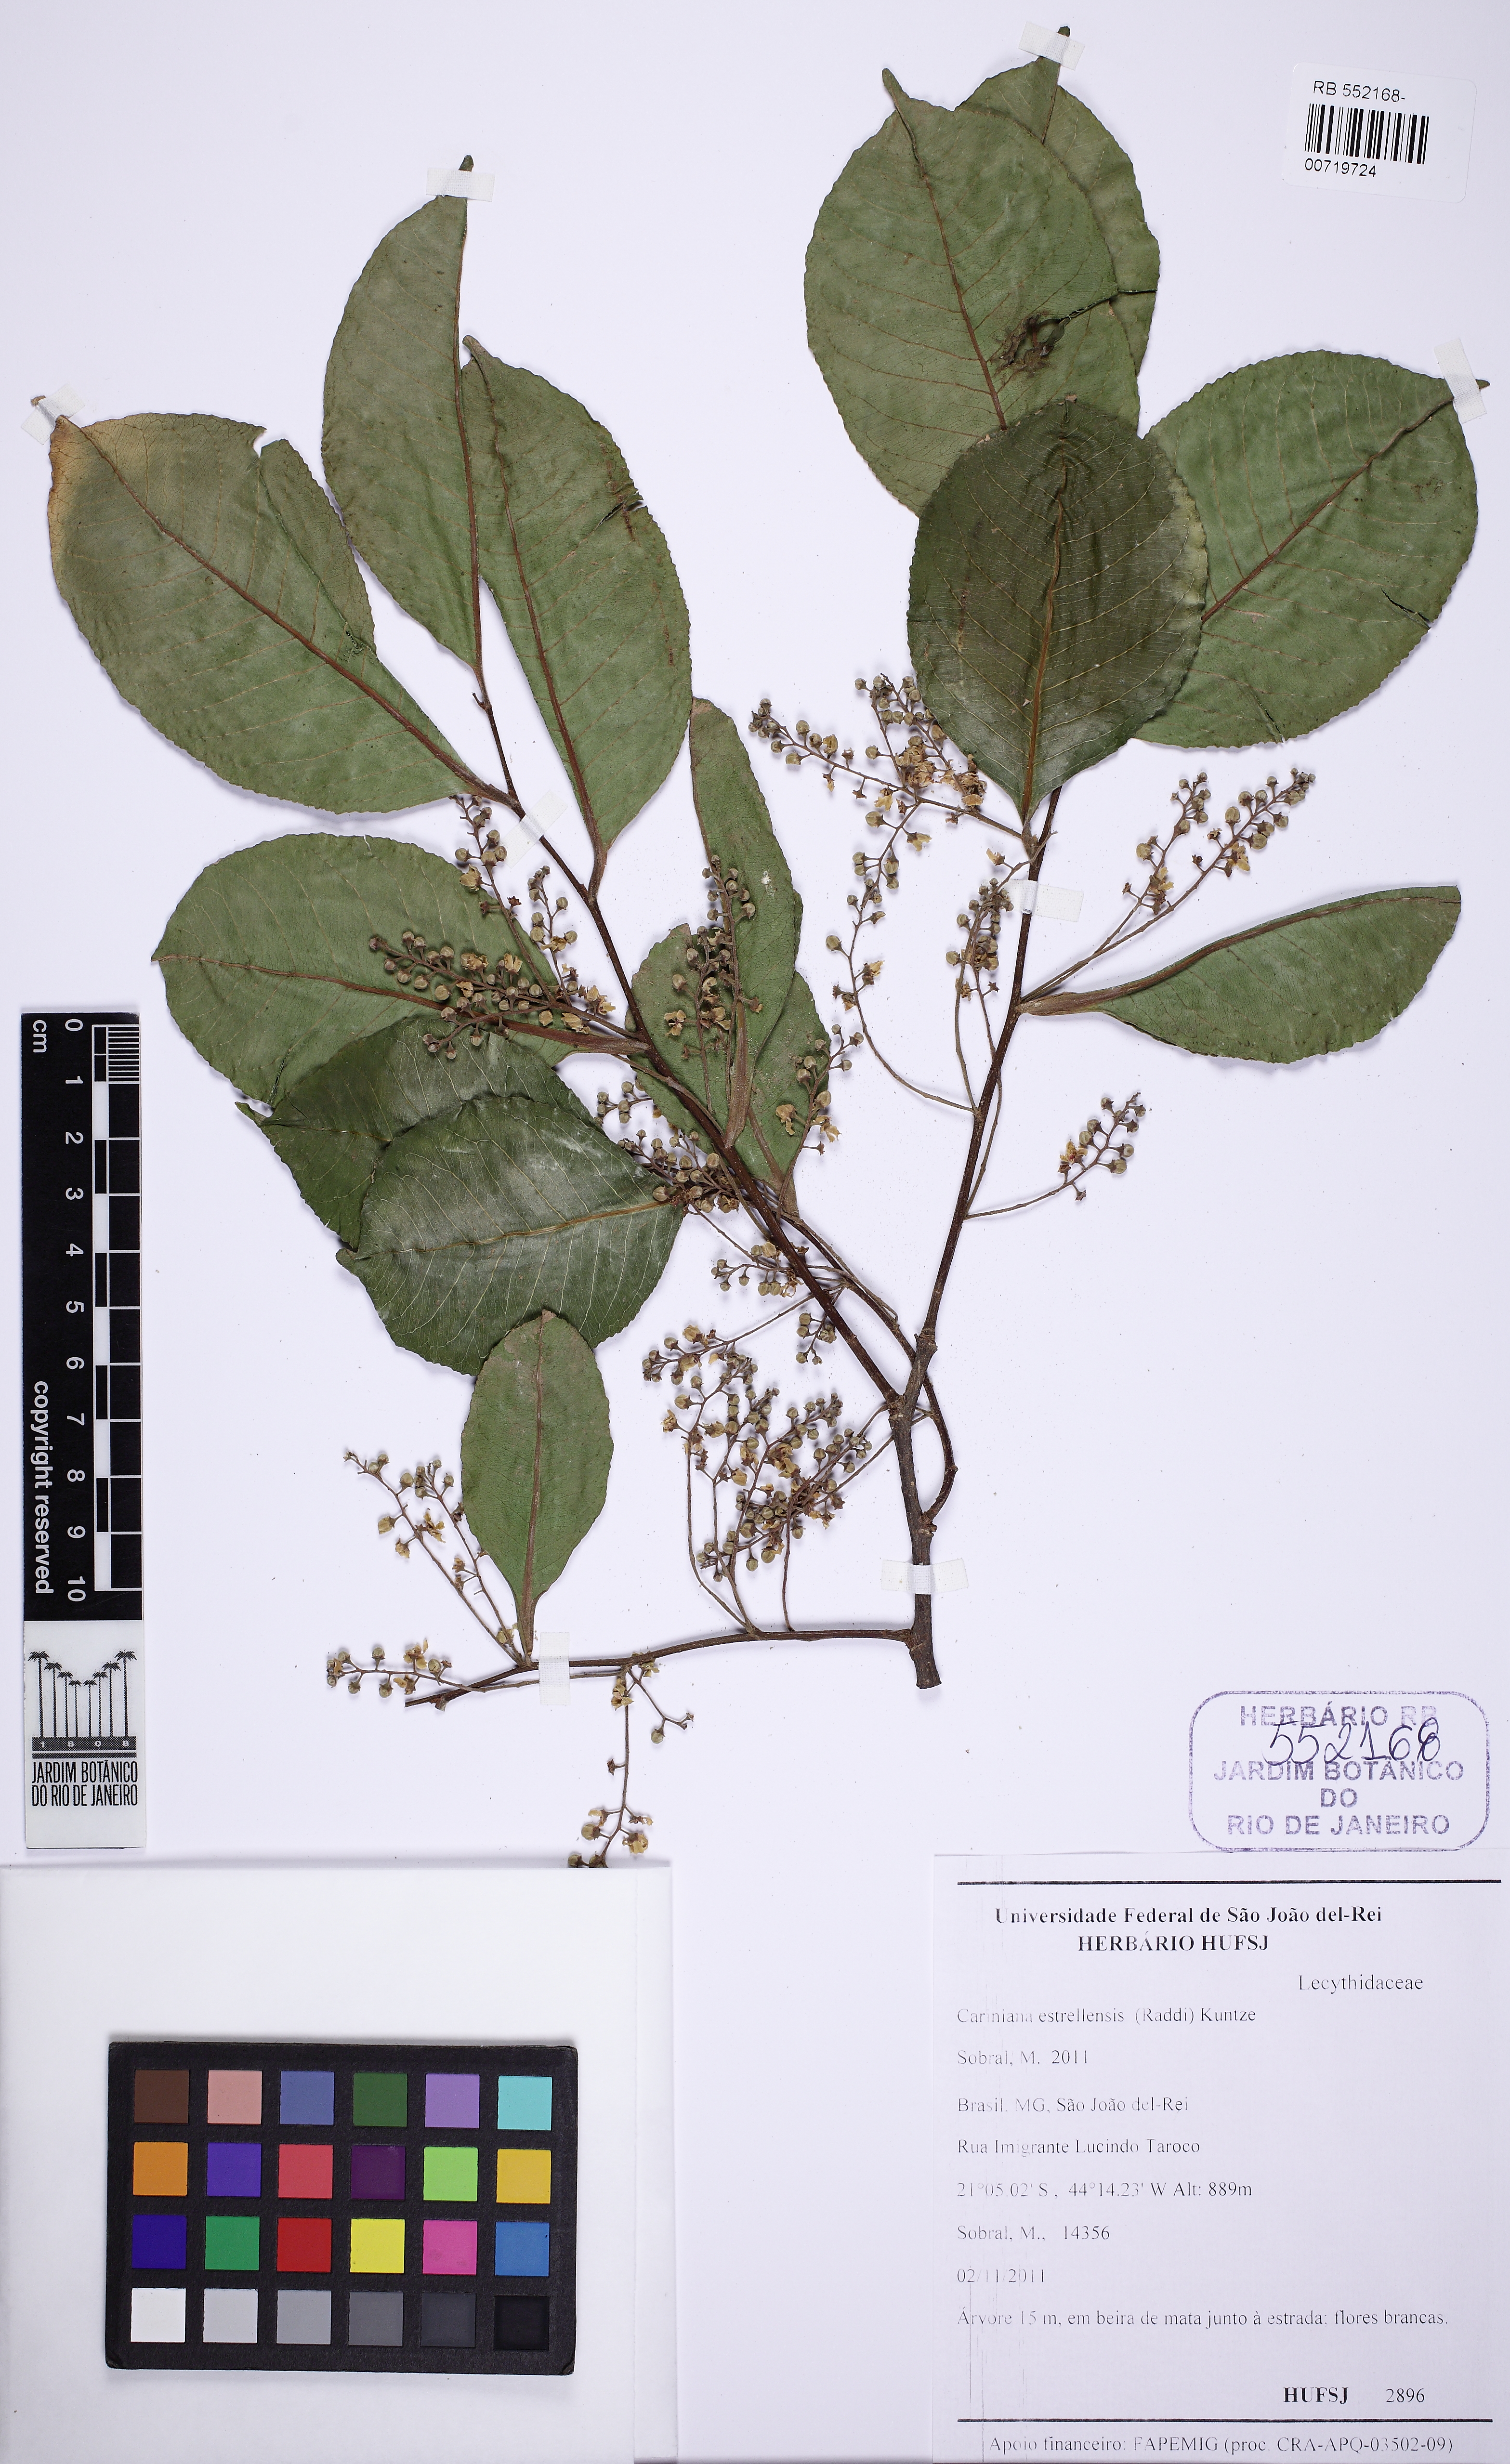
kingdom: Plantae
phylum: Tracheophyta
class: Magnoliopsida
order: Ericales
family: Lecythidaceae
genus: Cariniana
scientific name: Cariniana estrellensis
